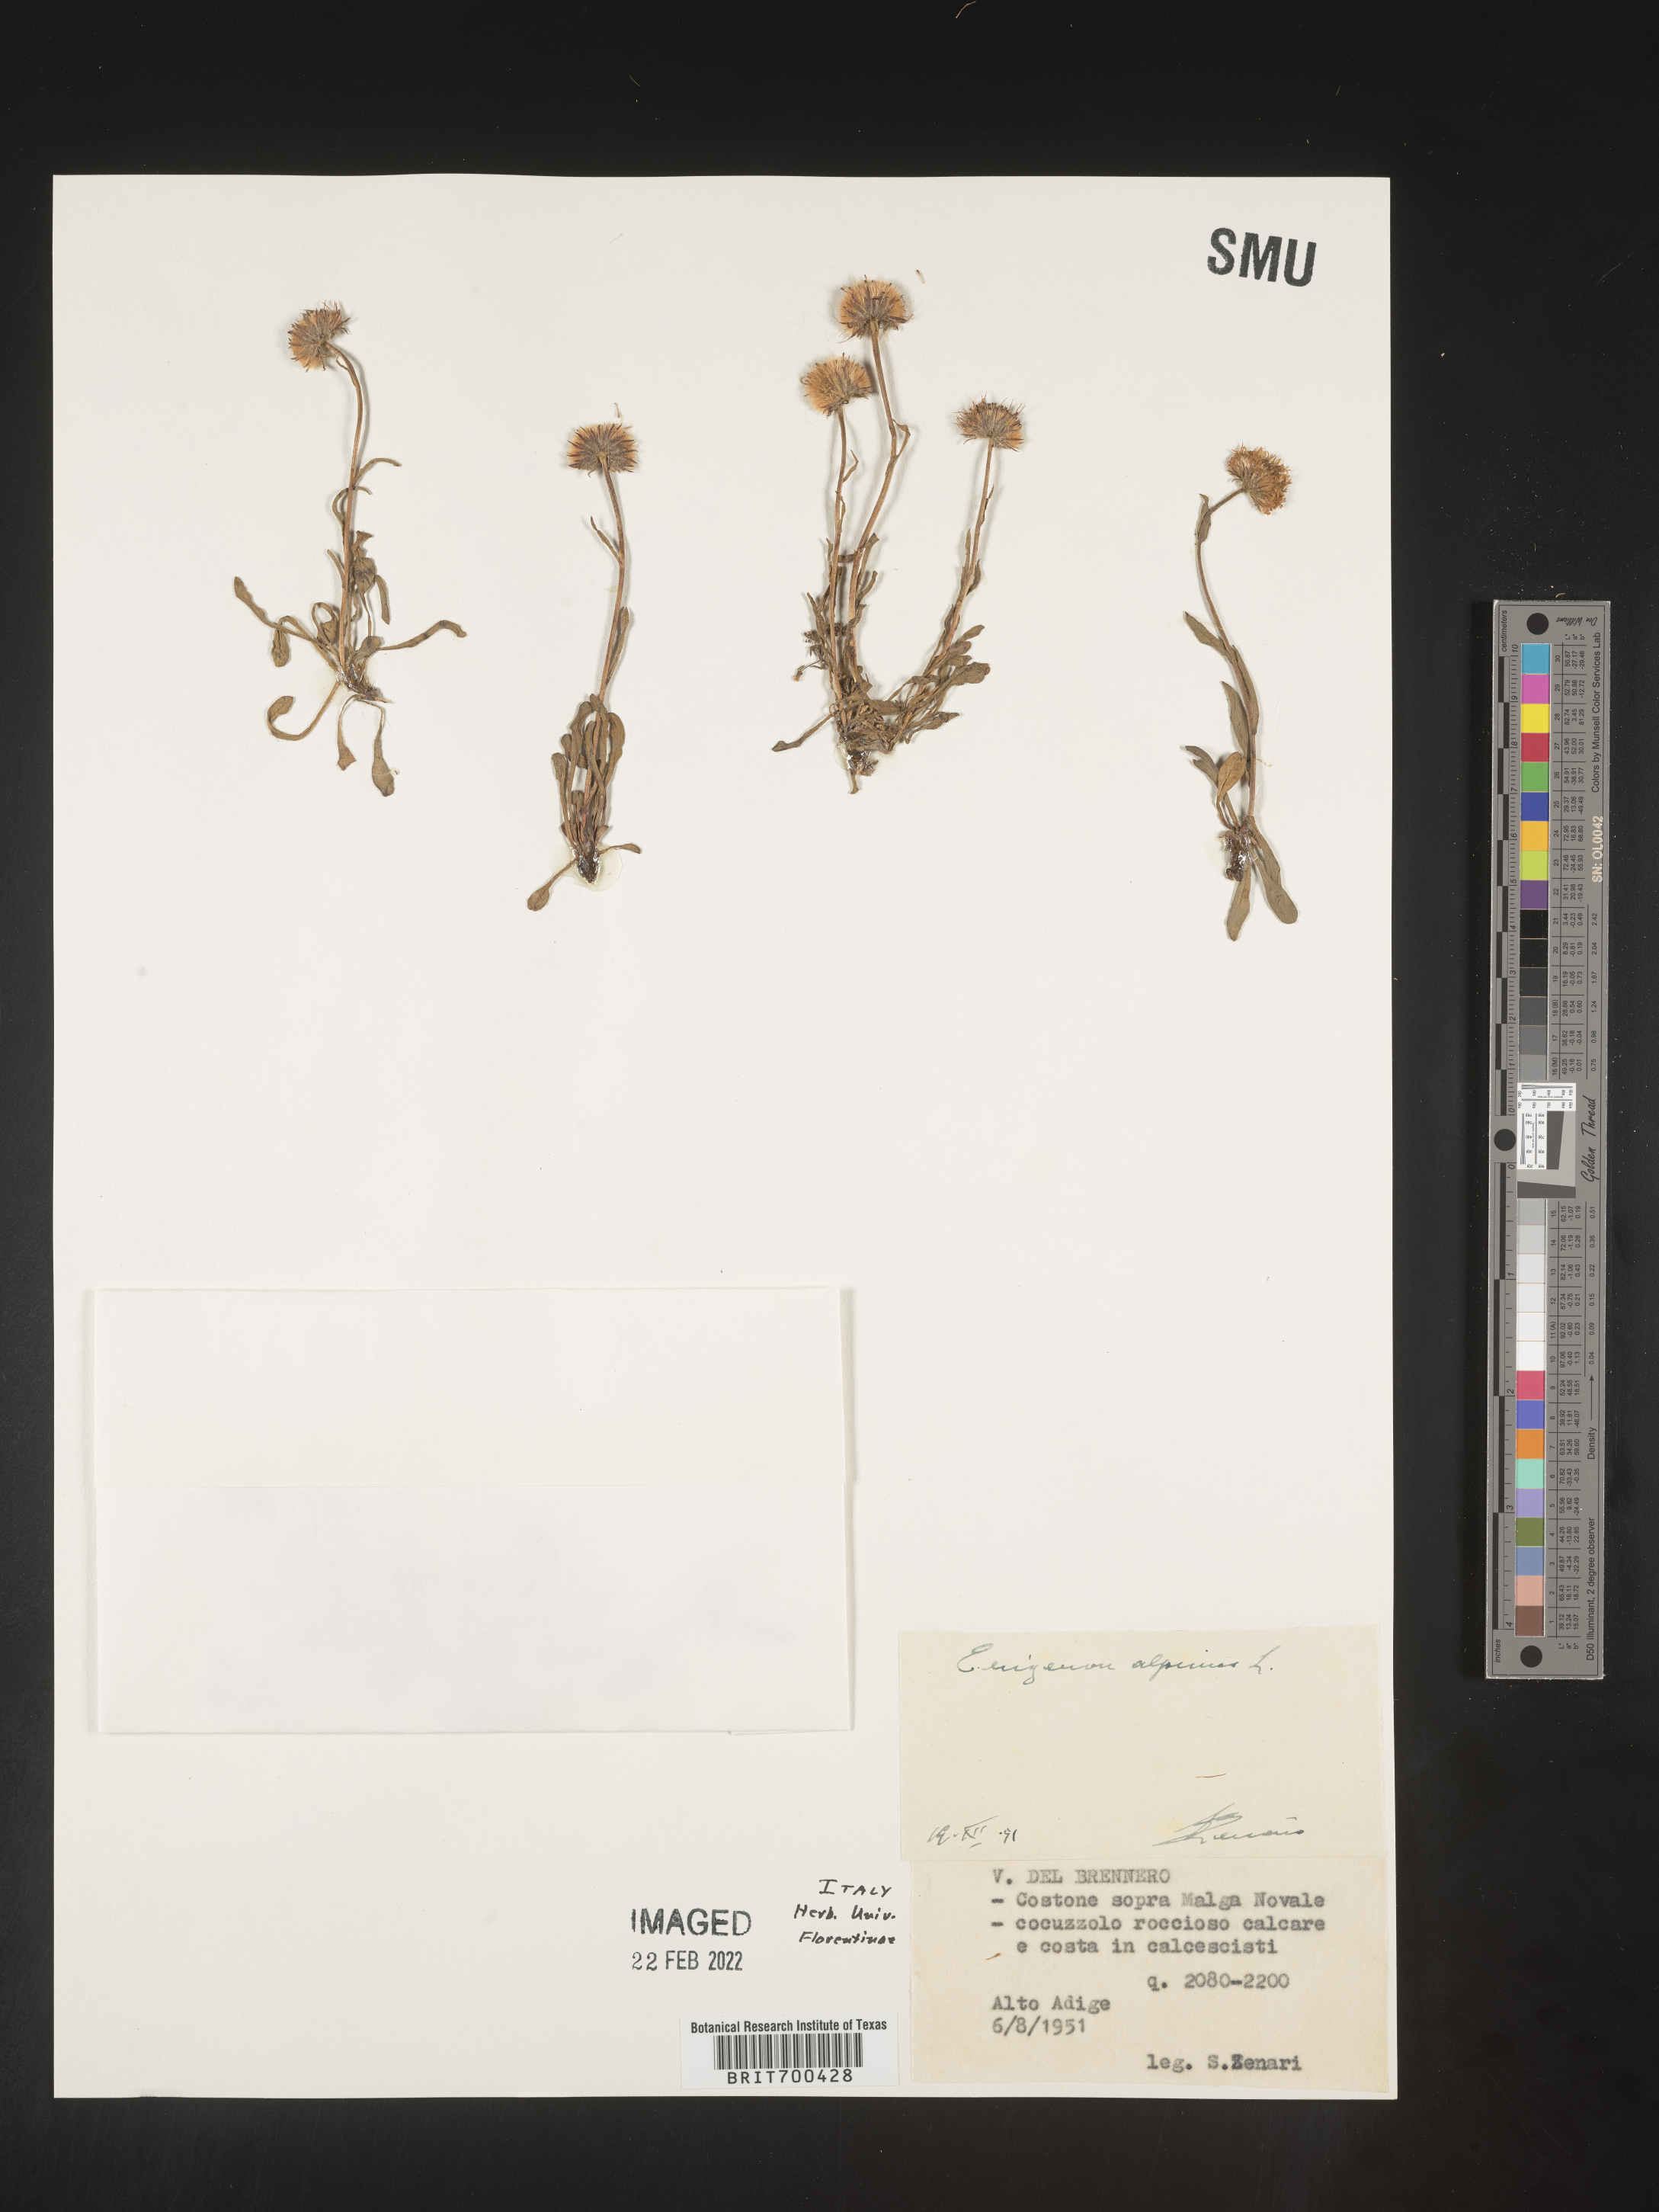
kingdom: Plantae
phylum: Tracheophyta
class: Magnoliopsida
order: Asterales
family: Asteraceae
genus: Erigeron
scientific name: Erigeron
